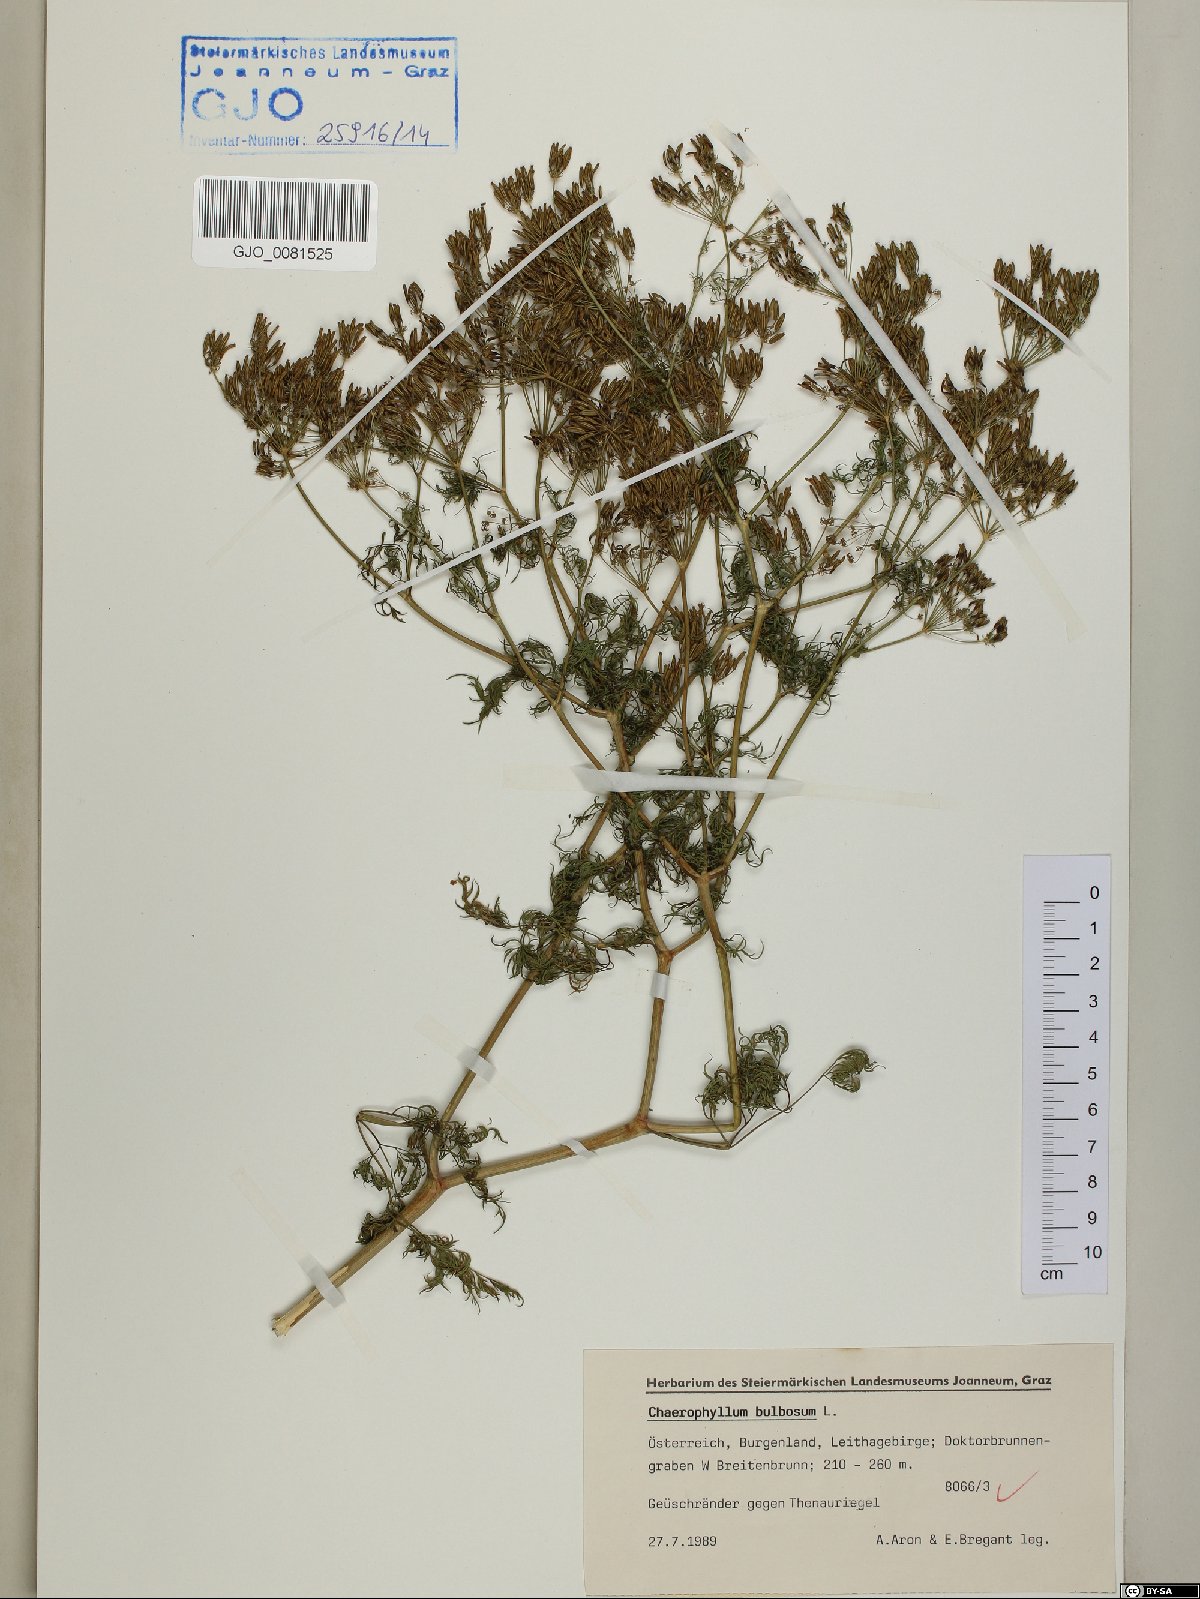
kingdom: Plantae
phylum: Tracheophyta
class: Magnoliopsida
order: Apiales
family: Apiaceae
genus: Chaerophyllum
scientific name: Chaerophyllum bulbosum
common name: Bulbous chervil
